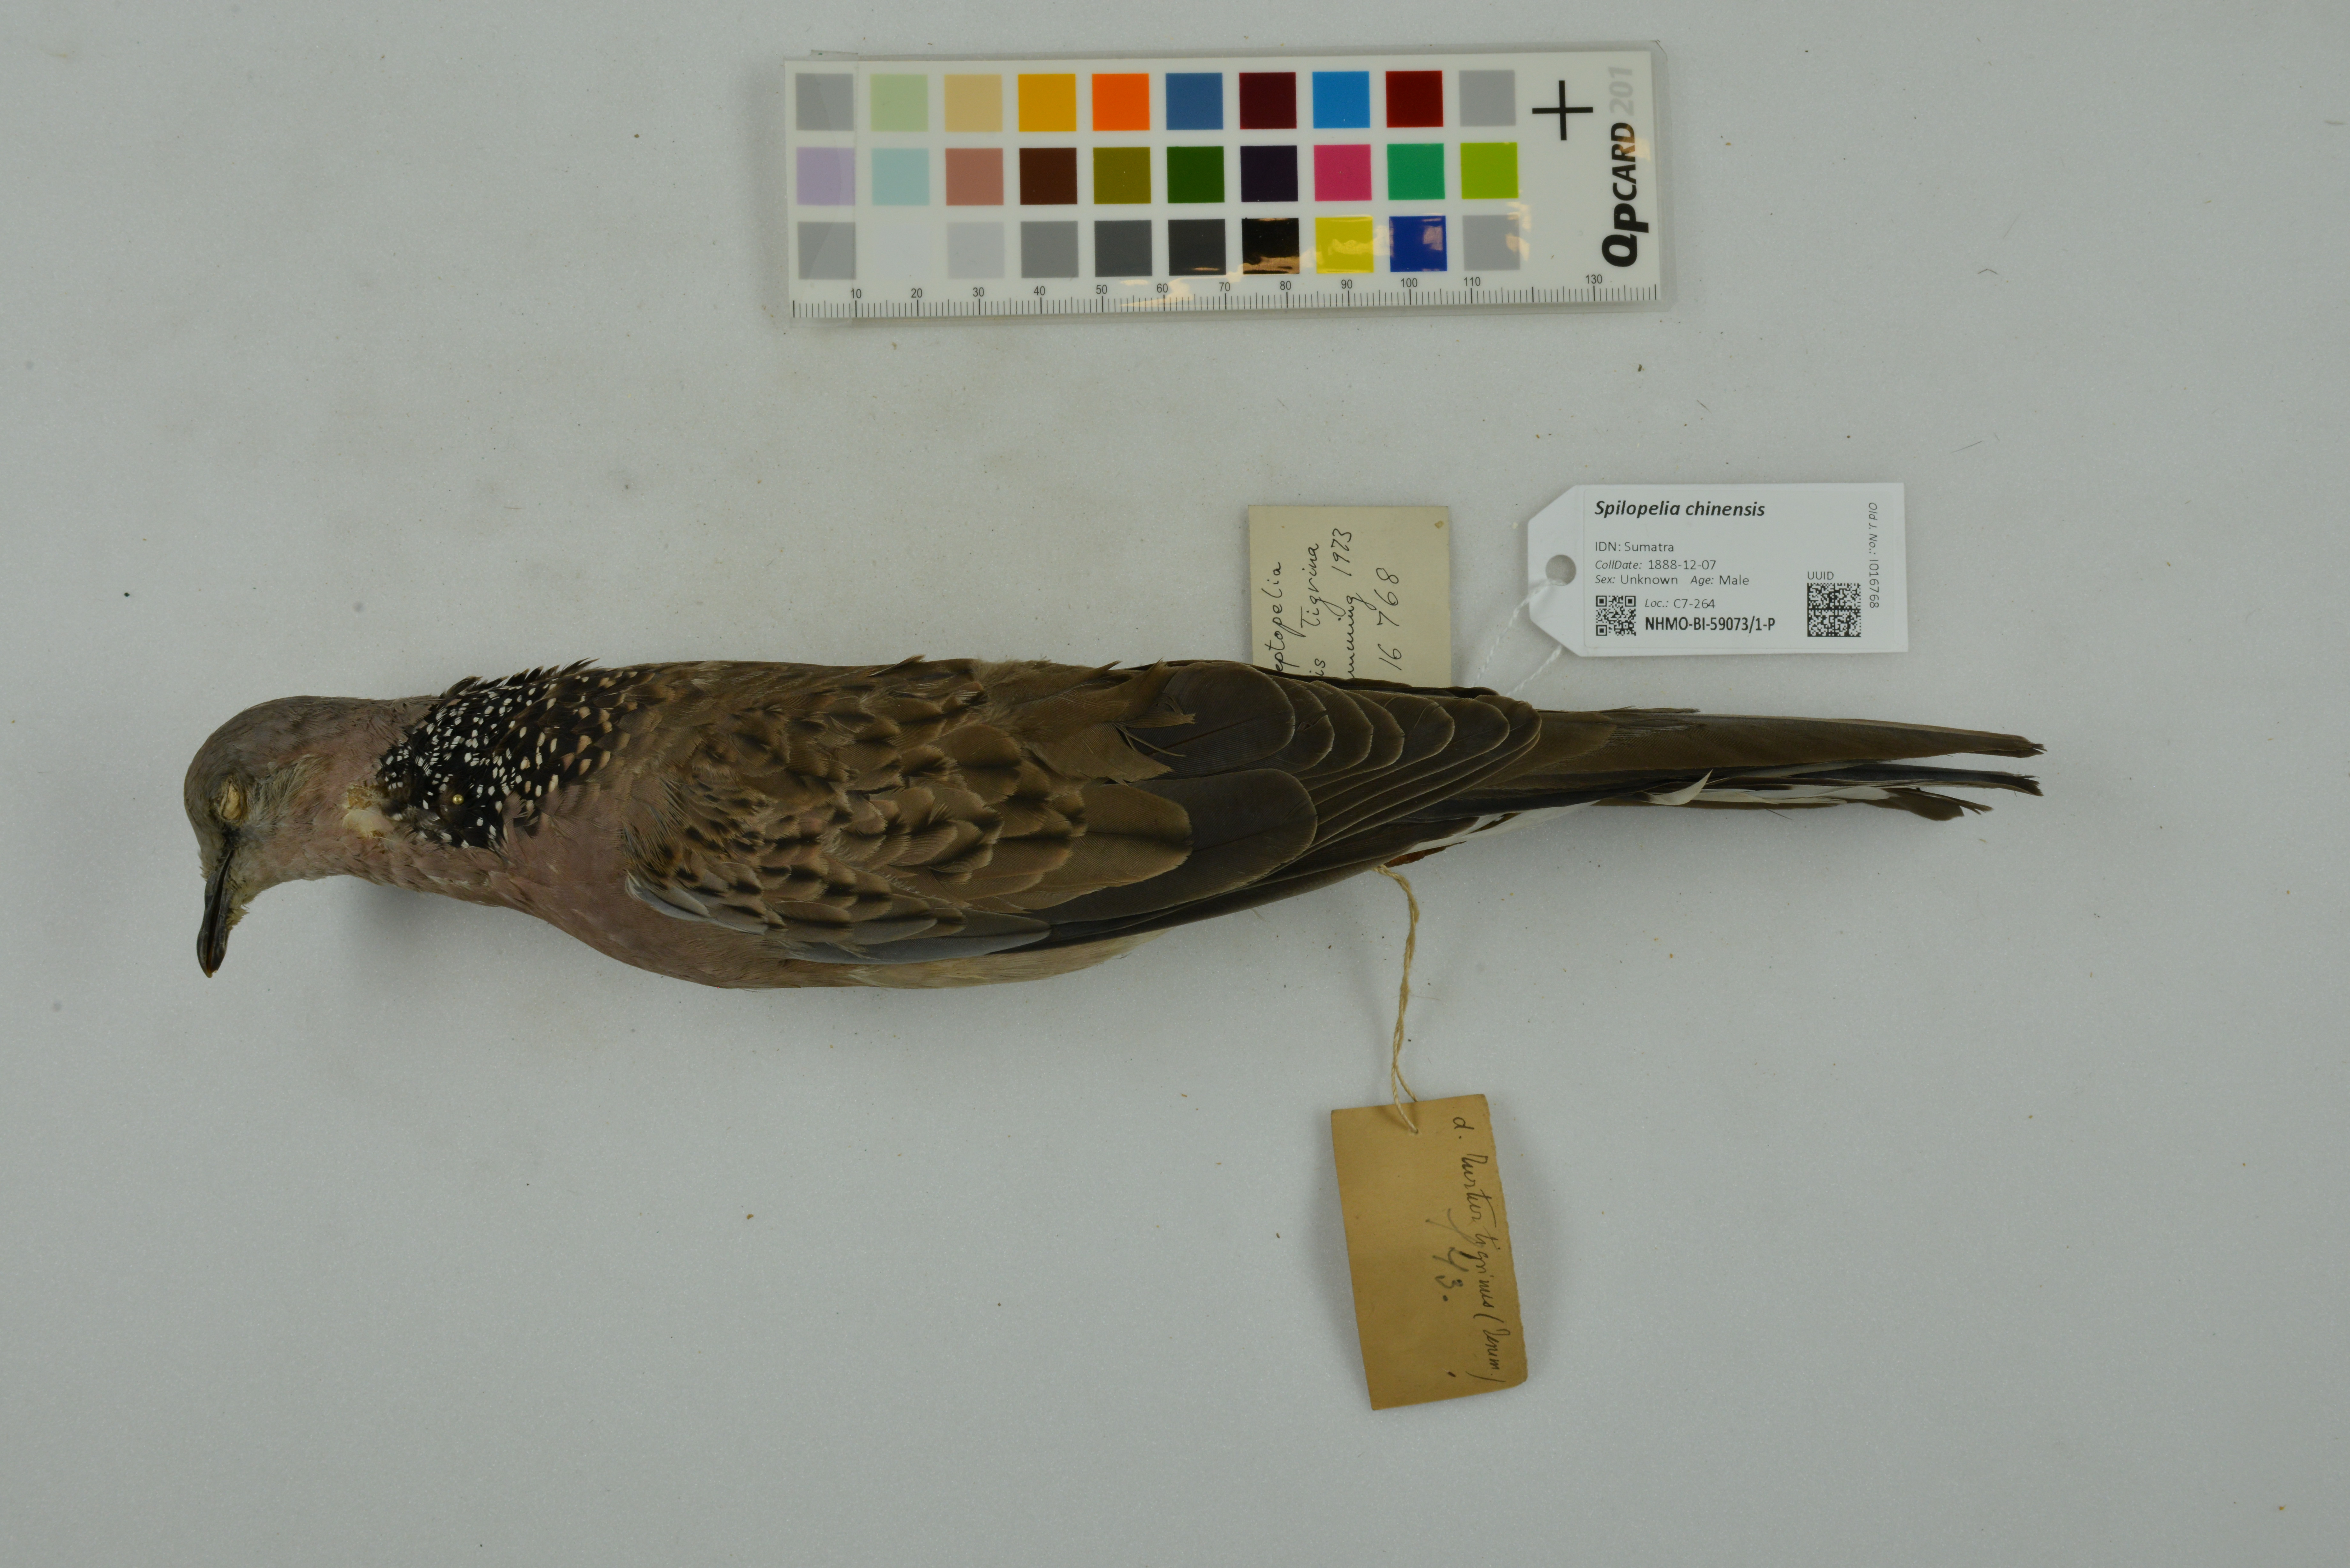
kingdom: Animalia
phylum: Chordata
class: Aves
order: Columbiformes
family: Columbidae
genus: Spilopelia
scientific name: Spilopelia chinensis
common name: Spotted dove
